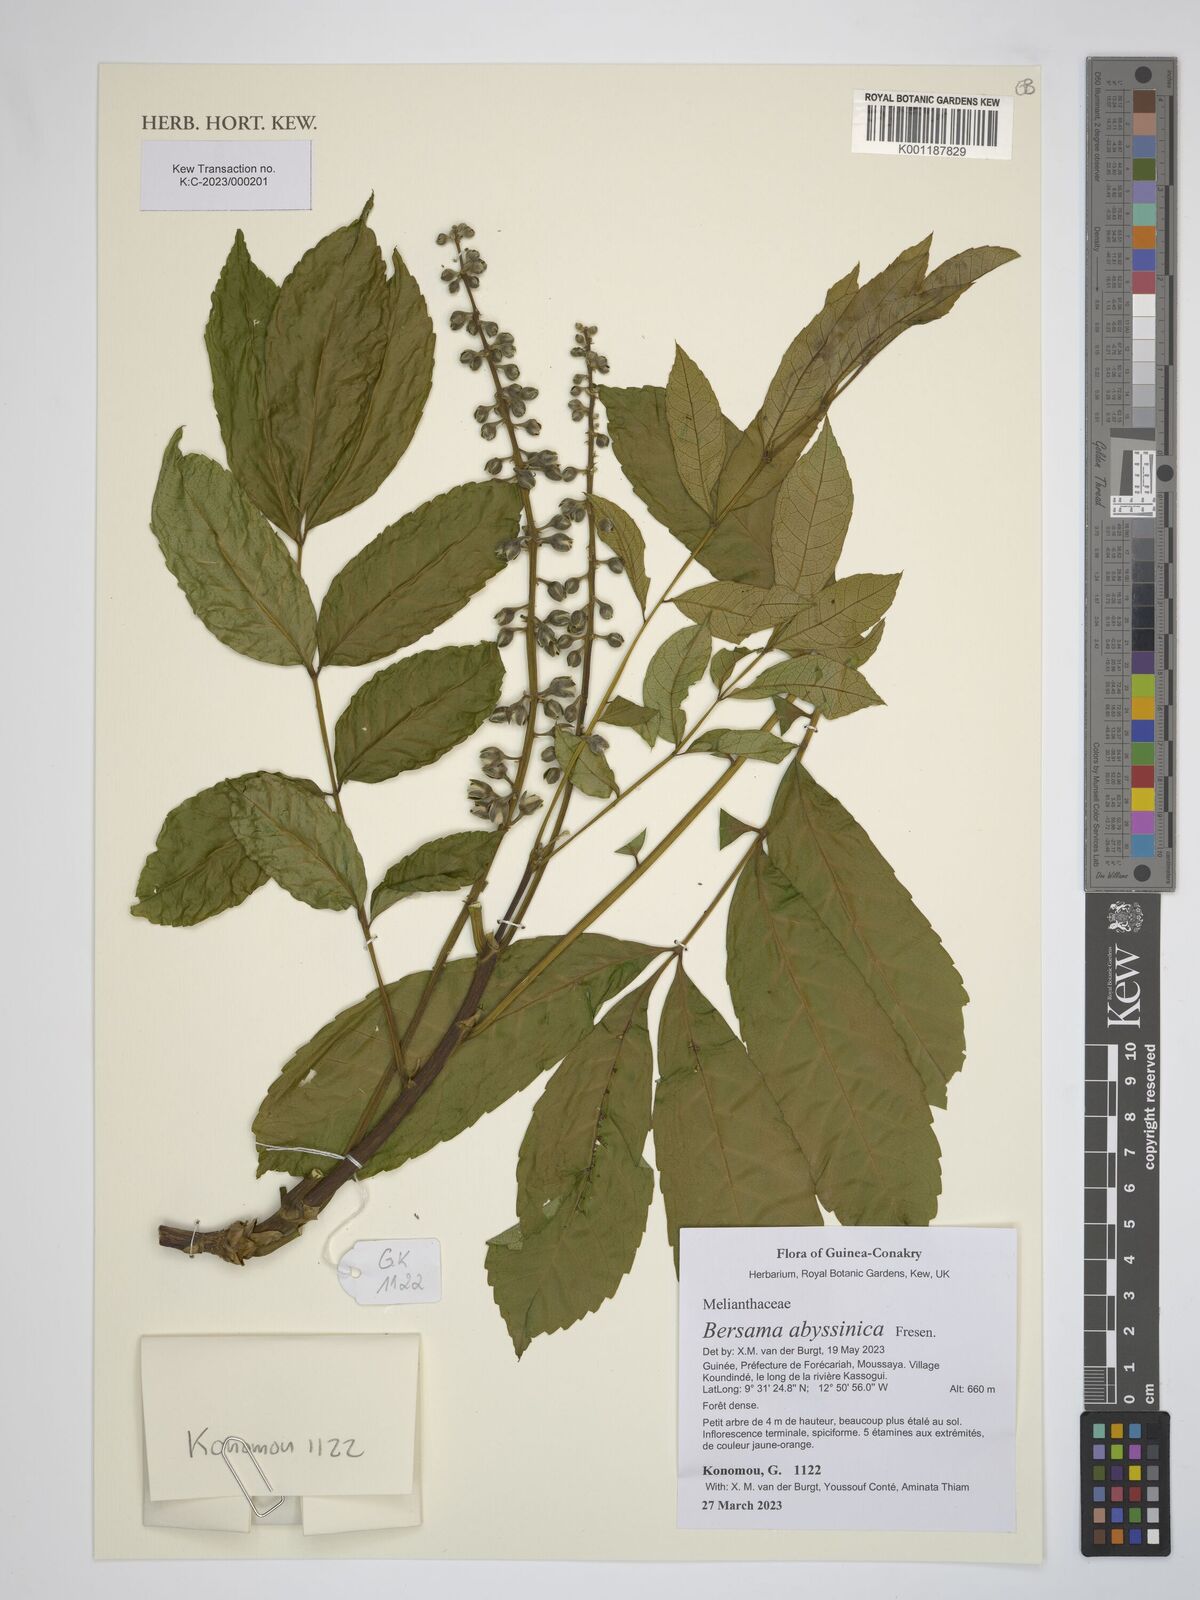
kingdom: Plantae
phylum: Tracheophyta
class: Magnoliopsida
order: Geraniales
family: Melianthaceae
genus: Bersama
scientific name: Bersama abyssinica
